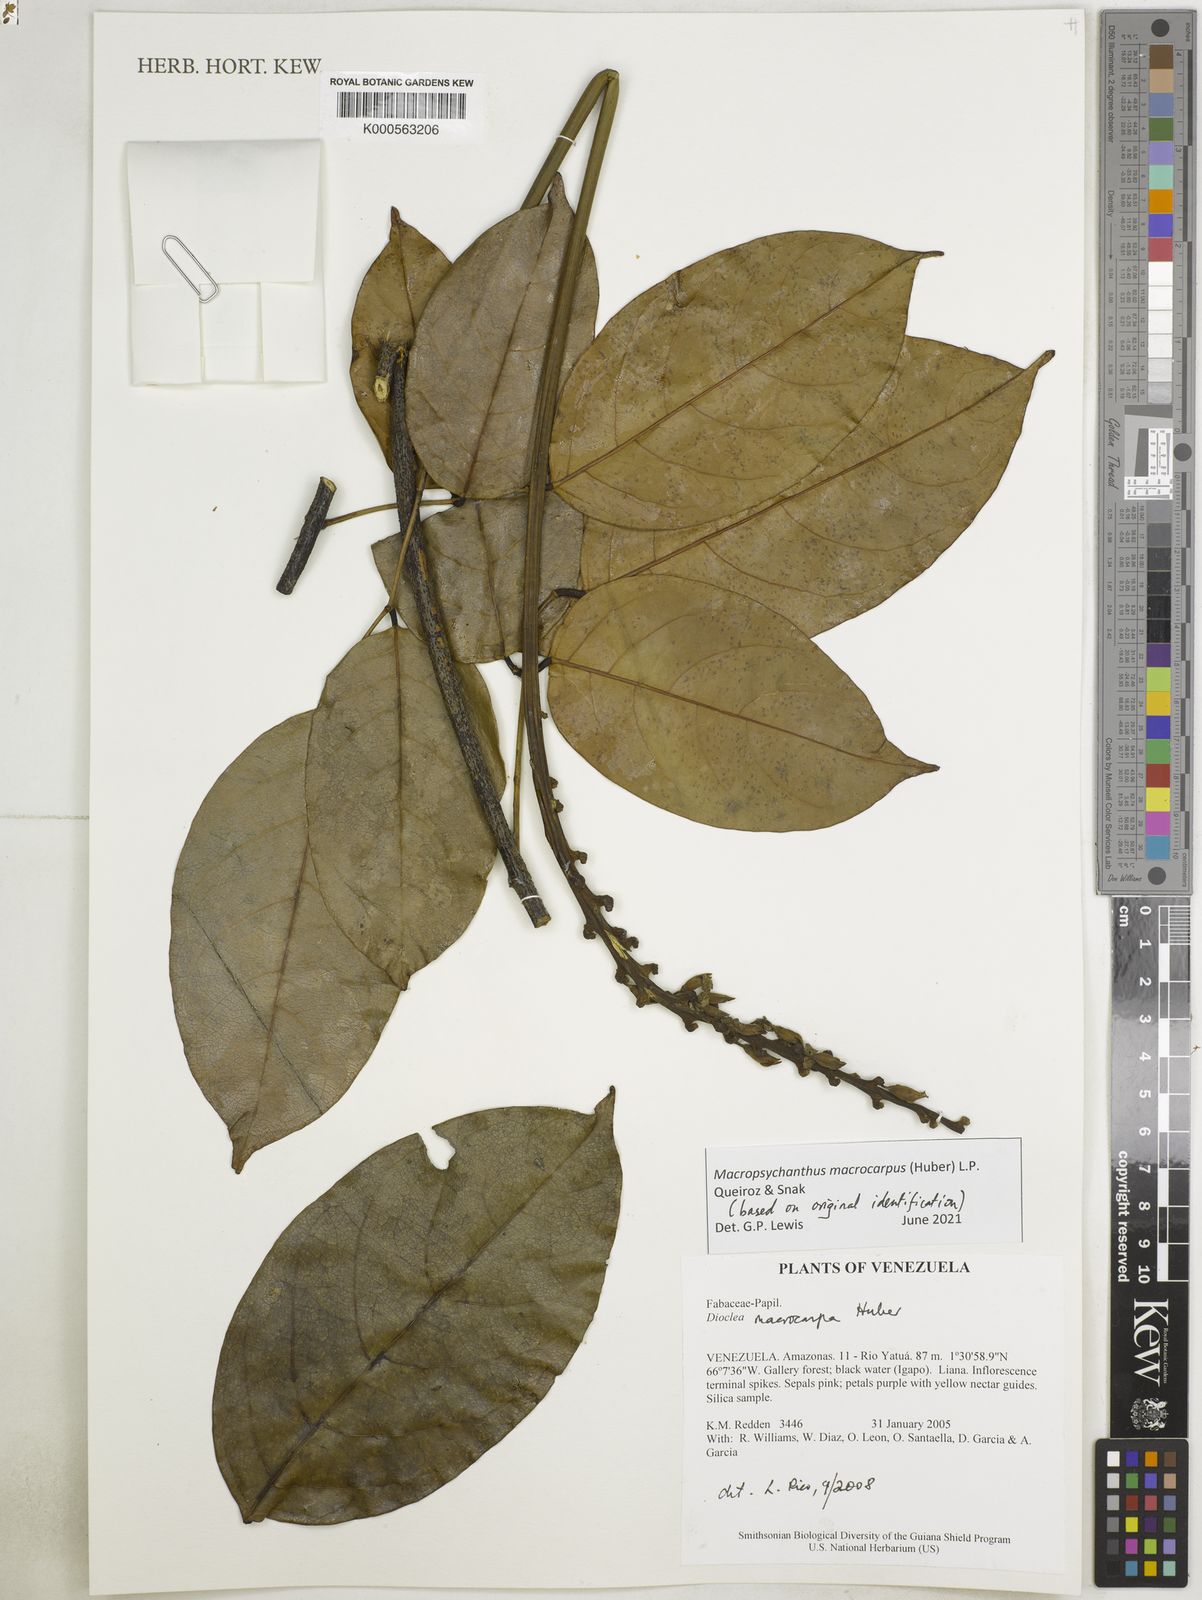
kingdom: Plantae
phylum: Tracheophyta
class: Magnoliopsida
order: Fabales
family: Fabaceae
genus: Macropsychanthus
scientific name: Macropsychanthus macrocarpus
